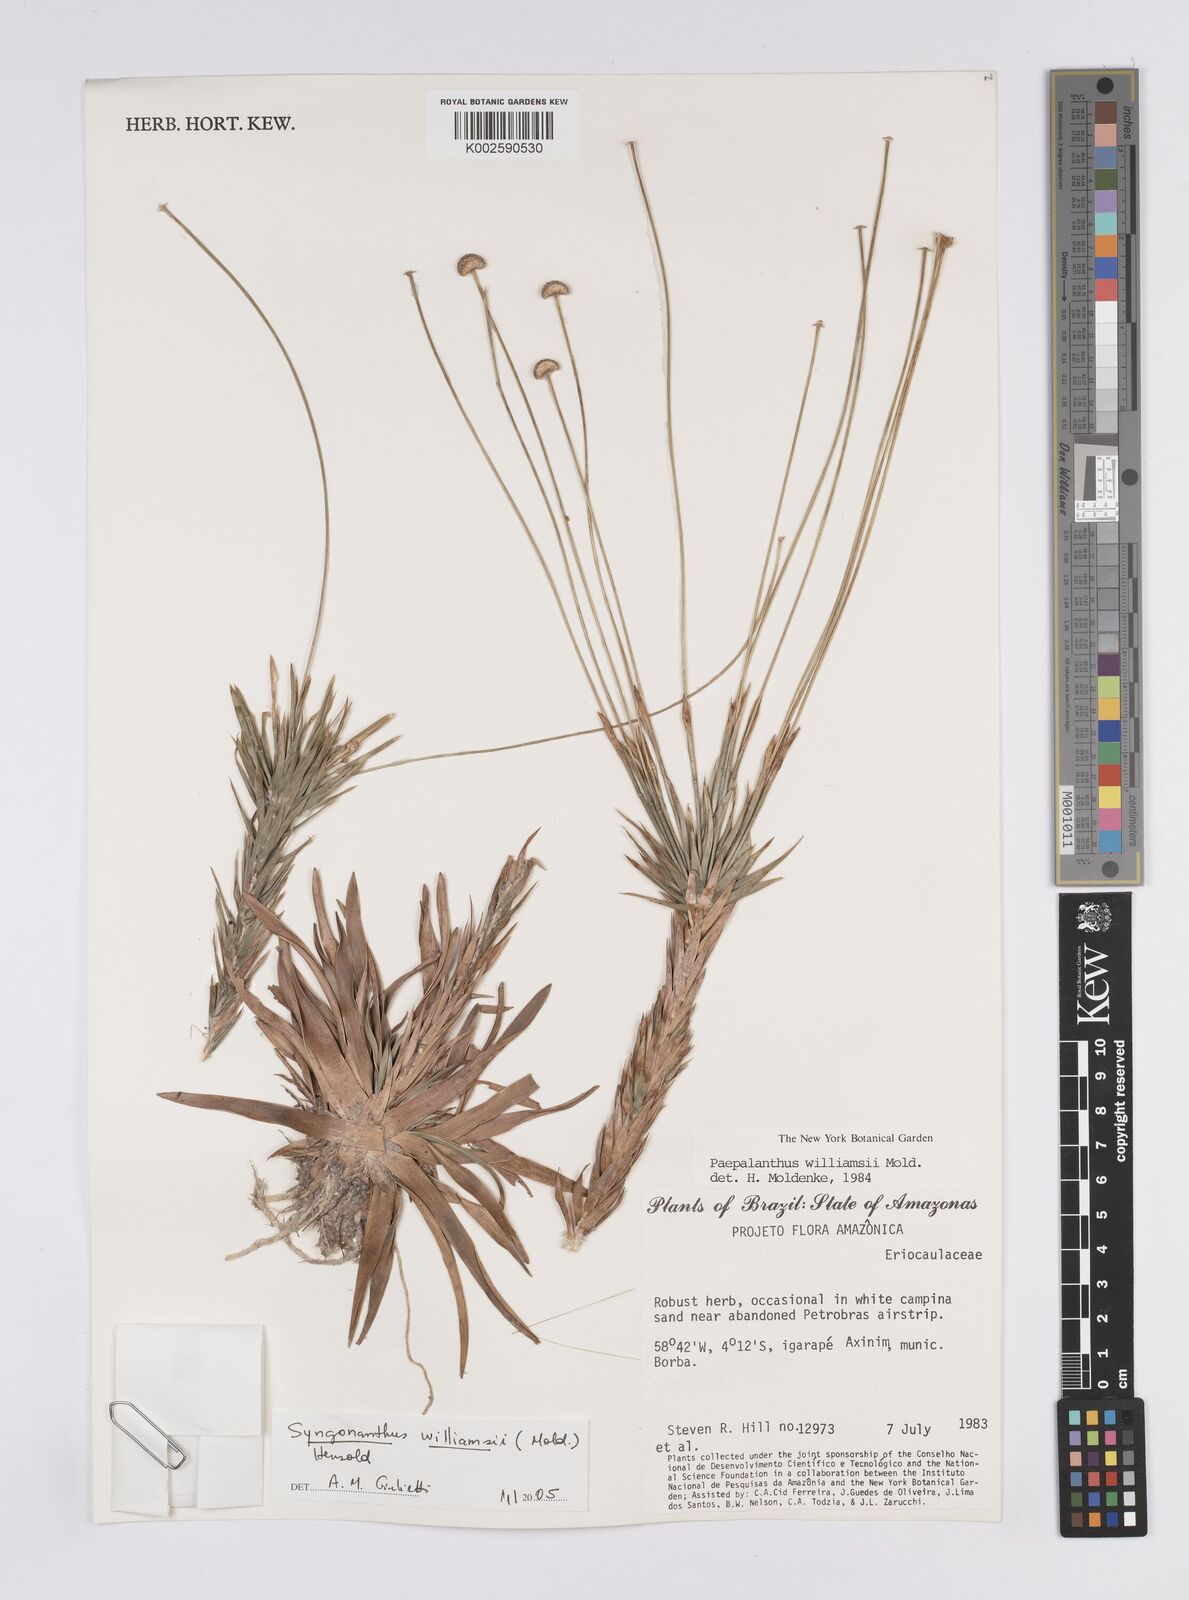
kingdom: Plantae
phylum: Tracheophyta
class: Liliopsida
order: Poales
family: Eriocaulaceae
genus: Syngonanthus
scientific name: Syngonanthus williamsii
